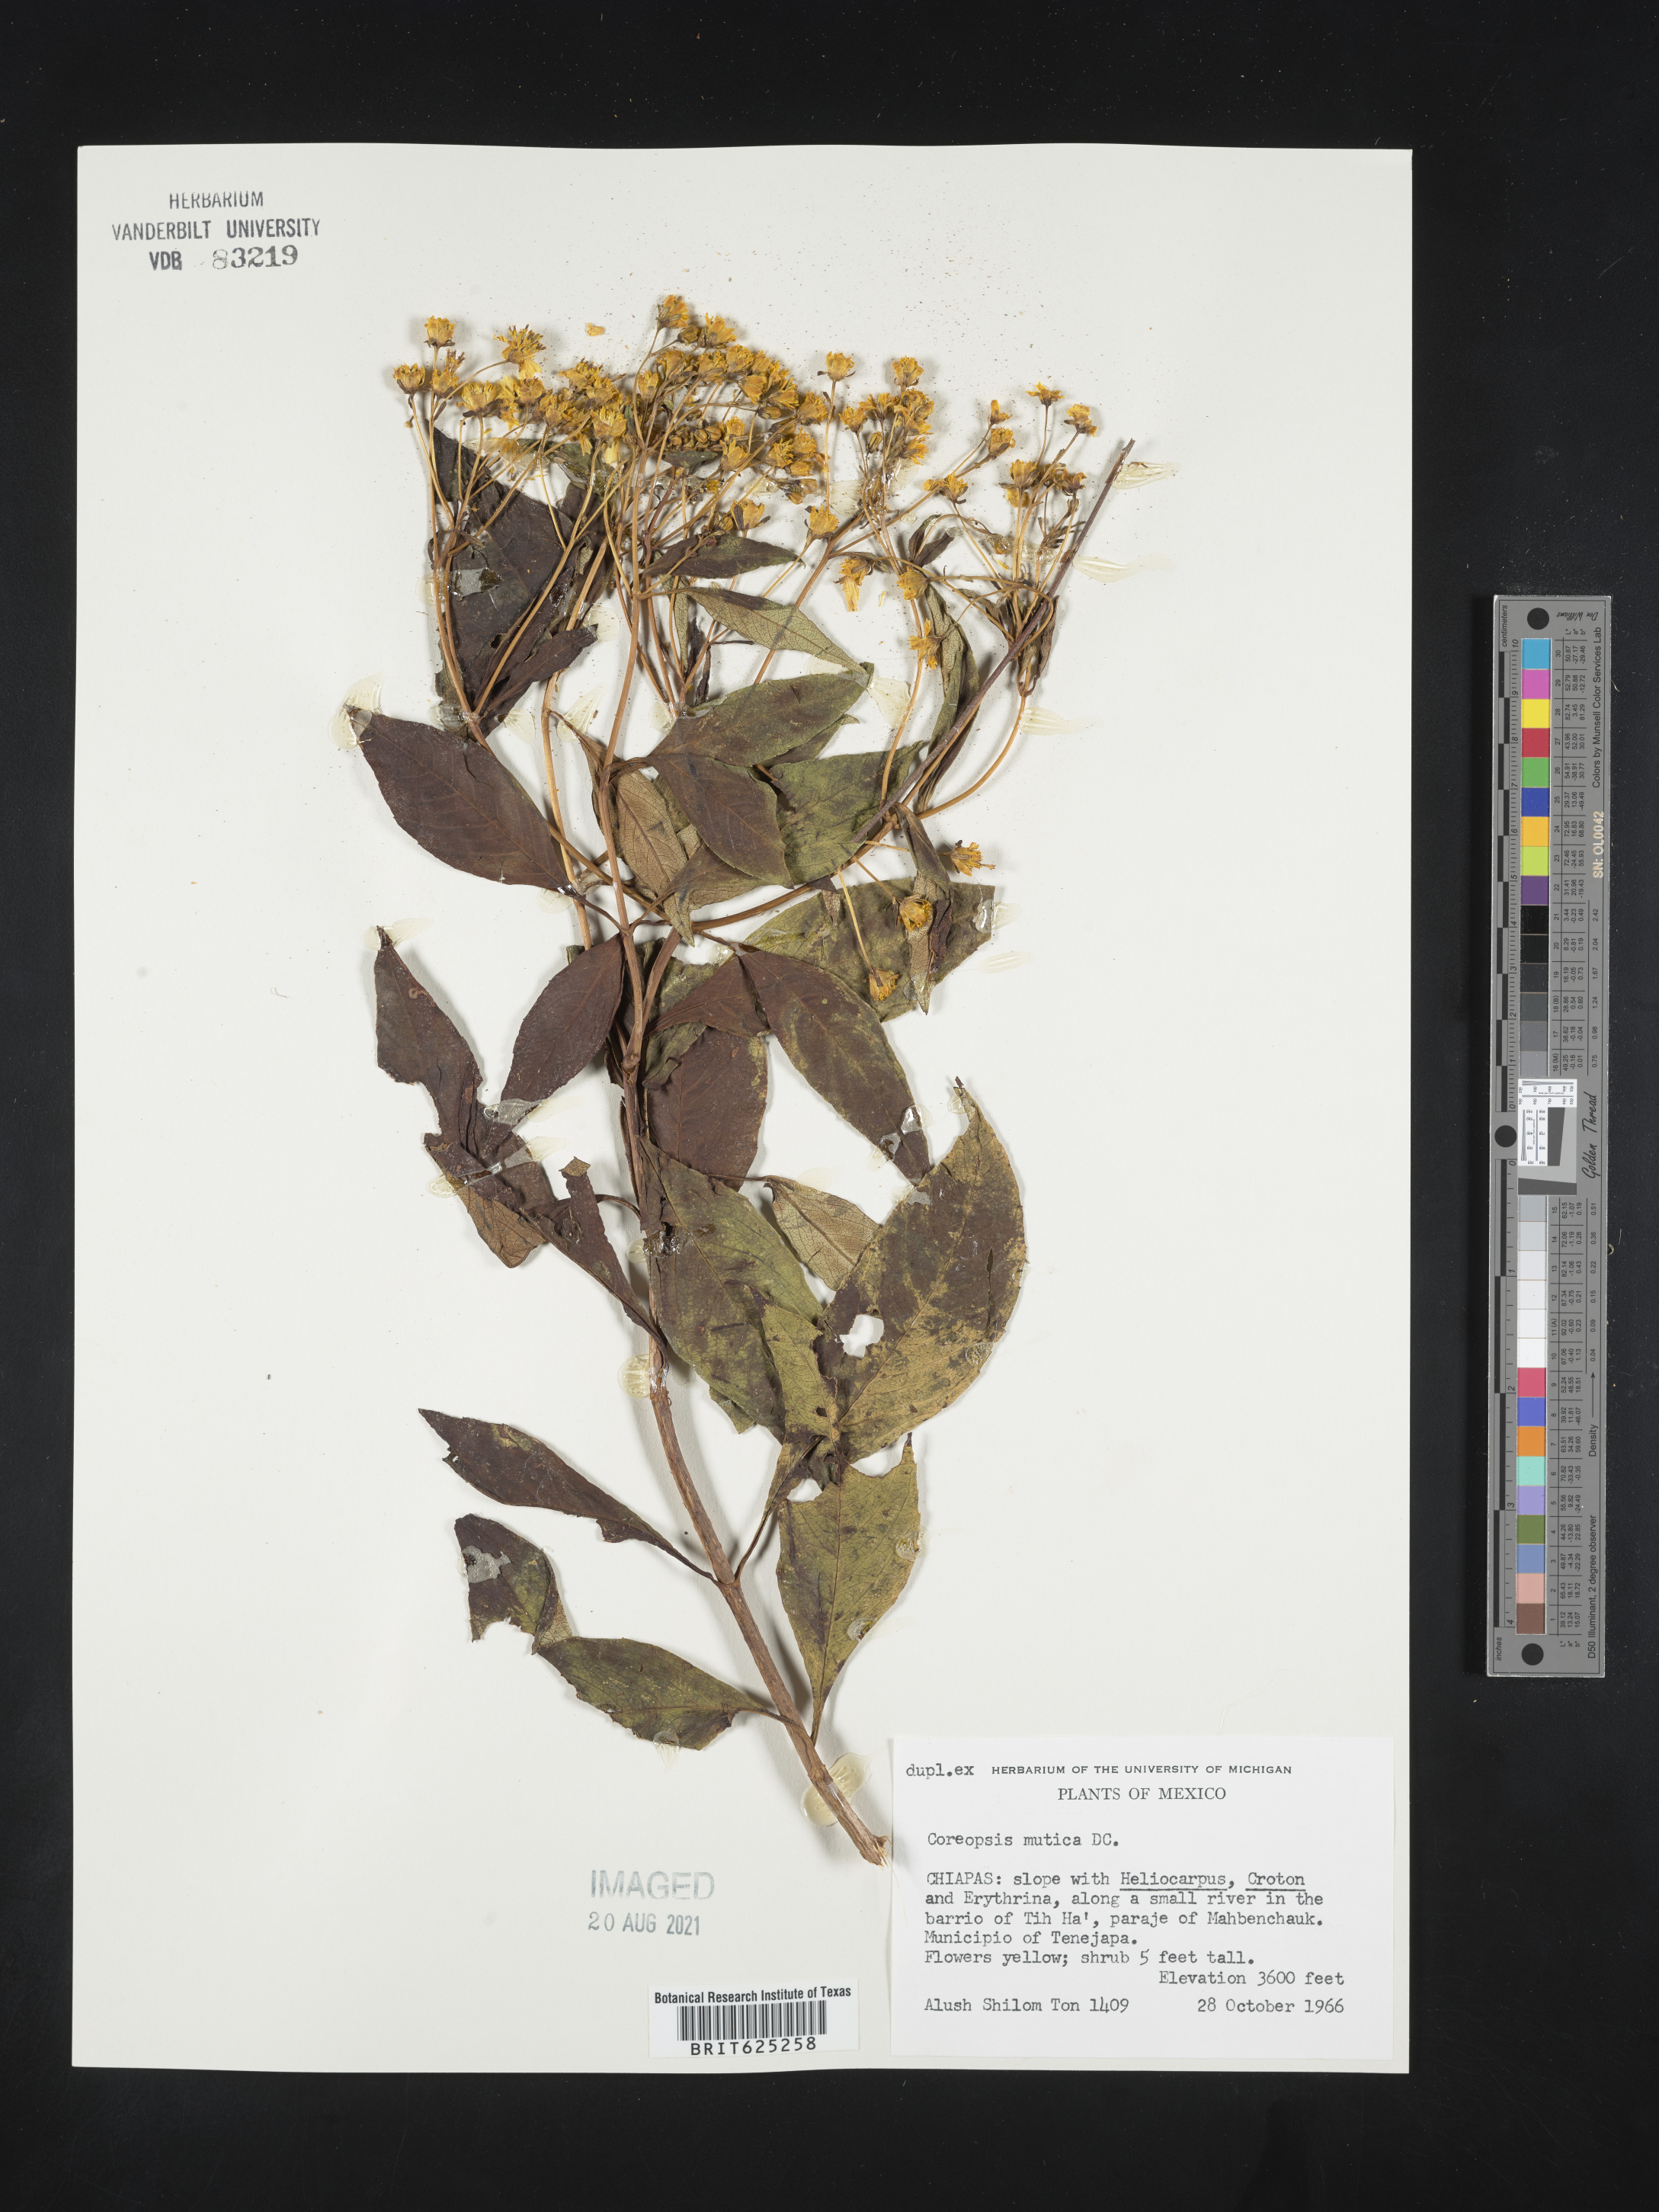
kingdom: Plantae
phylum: Tracheophyta
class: Magnoliopsida
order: Asterales
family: Asteraceae
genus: Coreopsis
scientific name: Coreopsis
